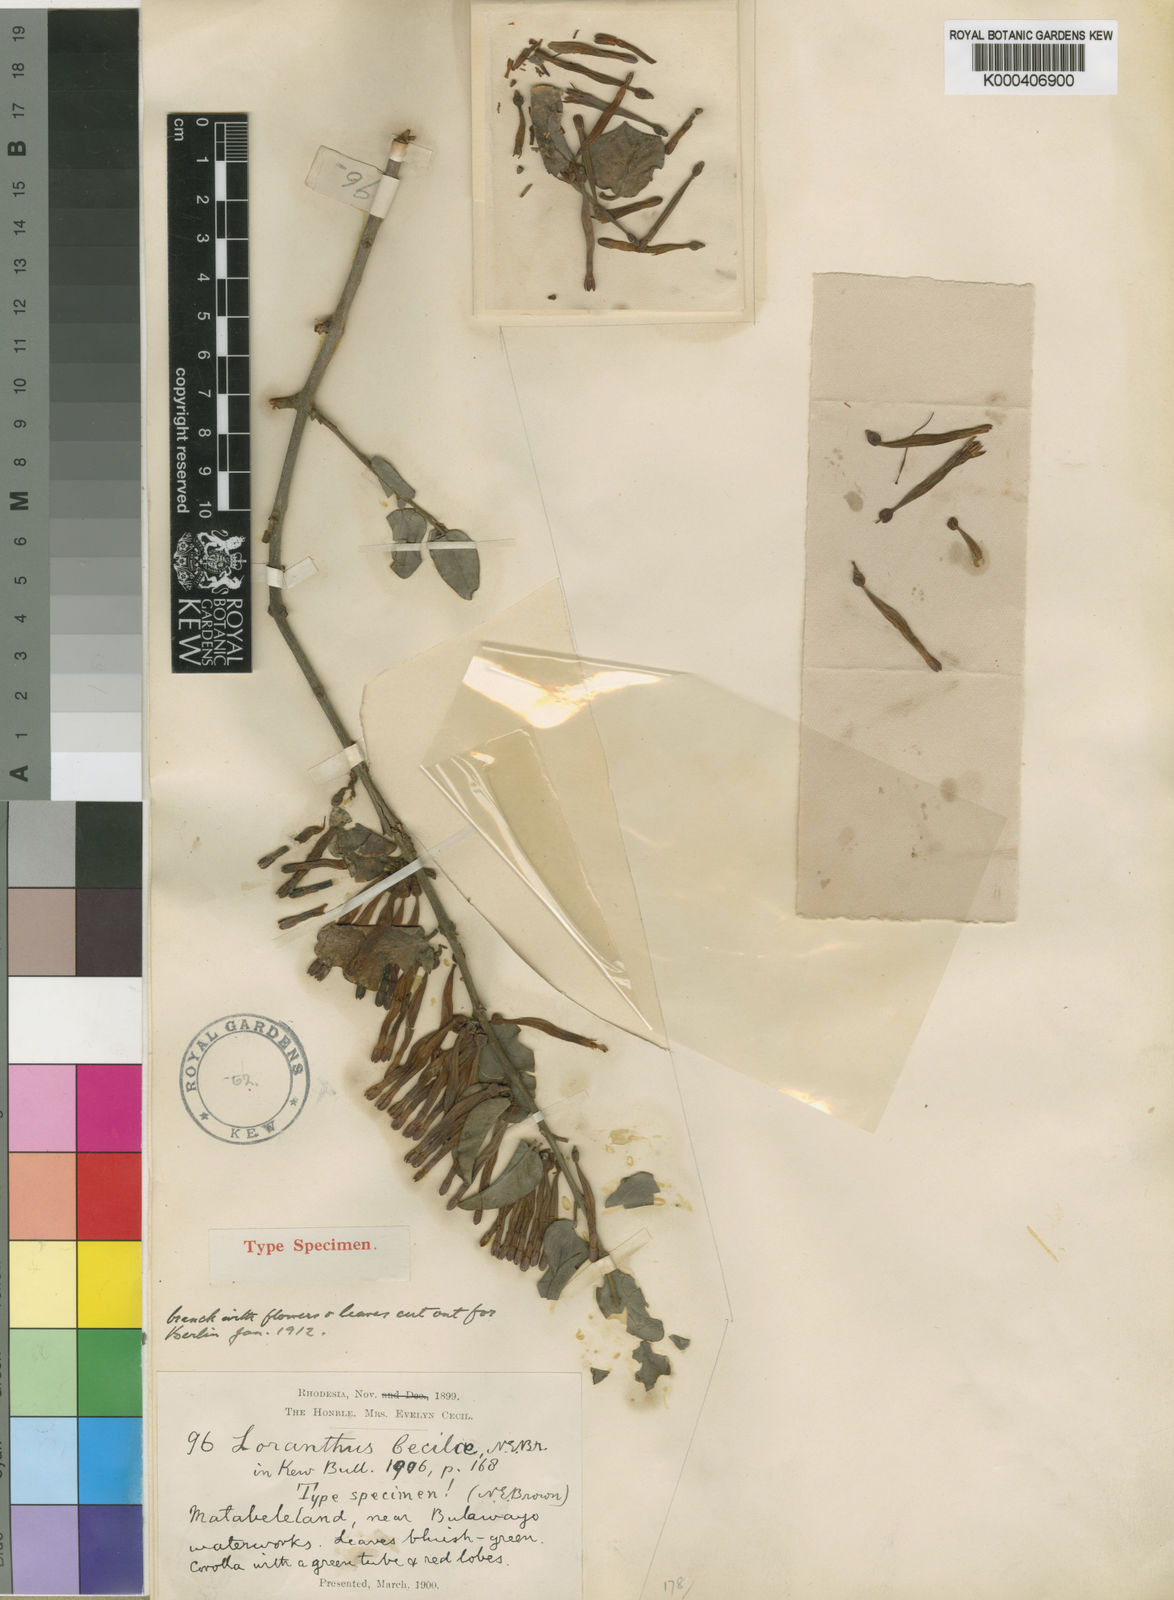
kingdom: Plantae
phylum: Tracheophyta
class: Magnoliopsida
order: Santalales
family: Loranthaceae
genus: Agelanthus
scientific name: Agelanthus pungu
